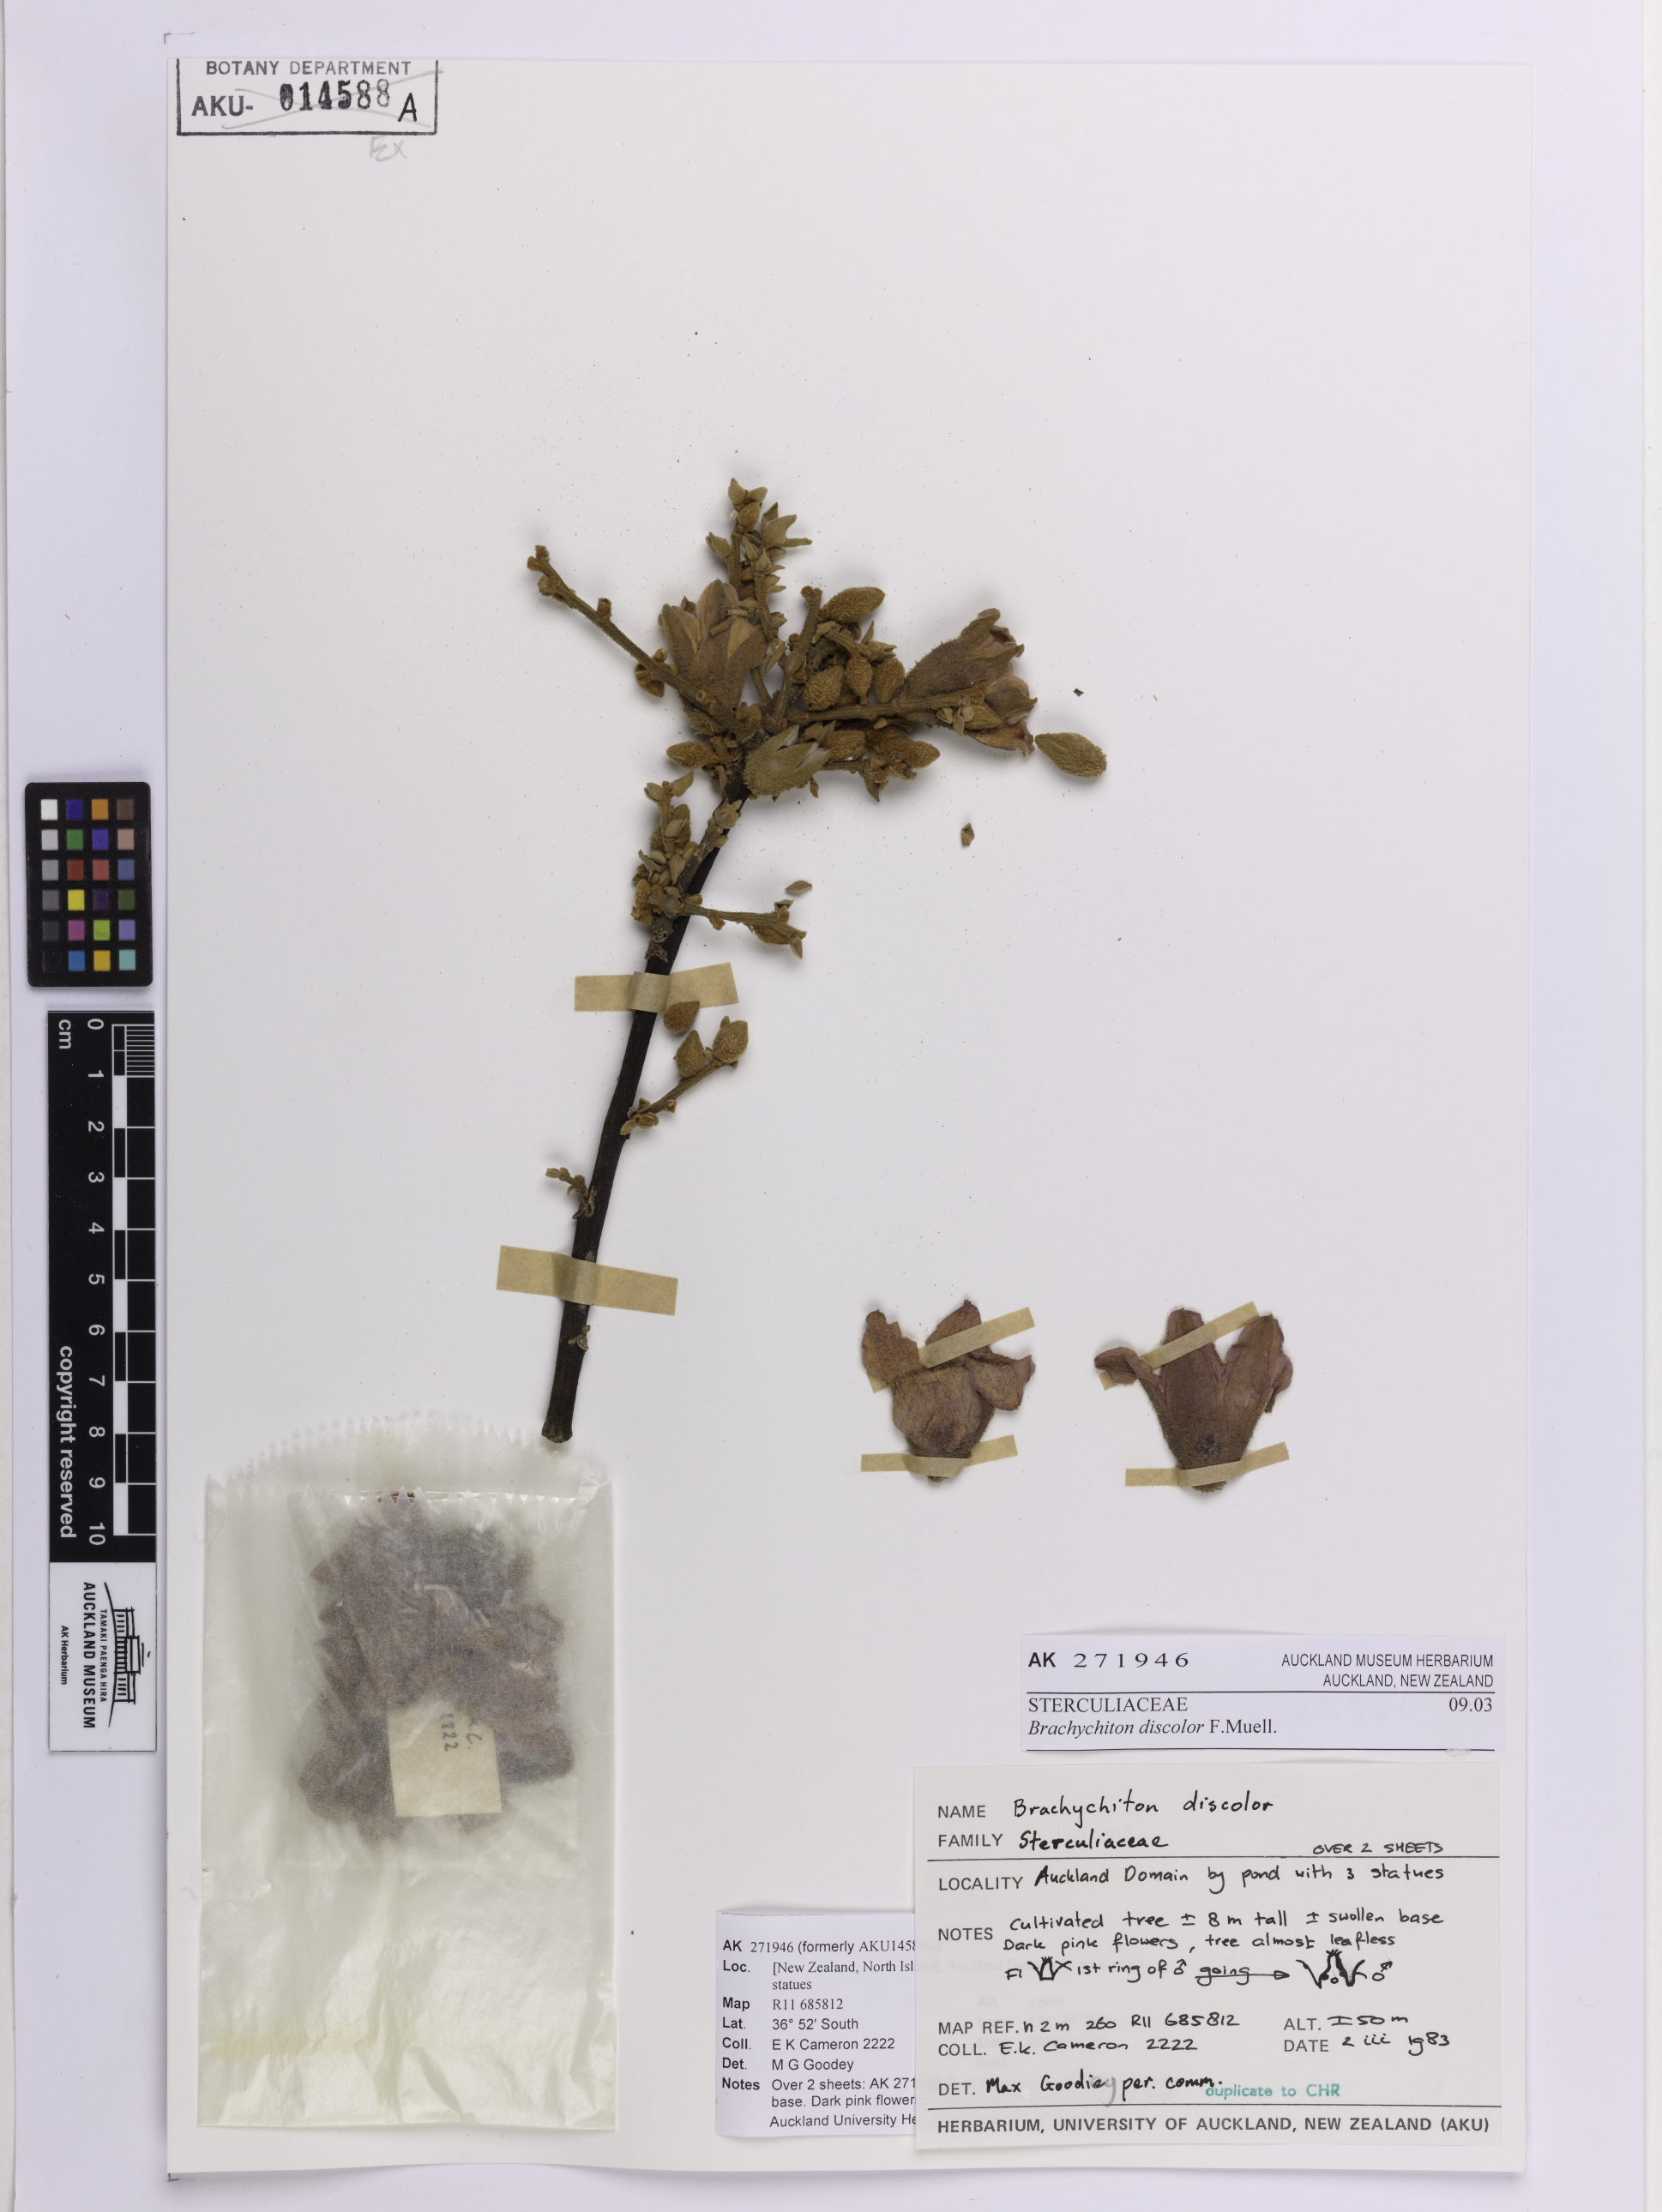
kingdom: Plantae
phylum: Tracheophyta
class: Magnoliopsida
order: Malvales
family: Malvaceae
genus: Brachychiton
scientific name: Brachychiton discolor
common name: Queensland lacebark
